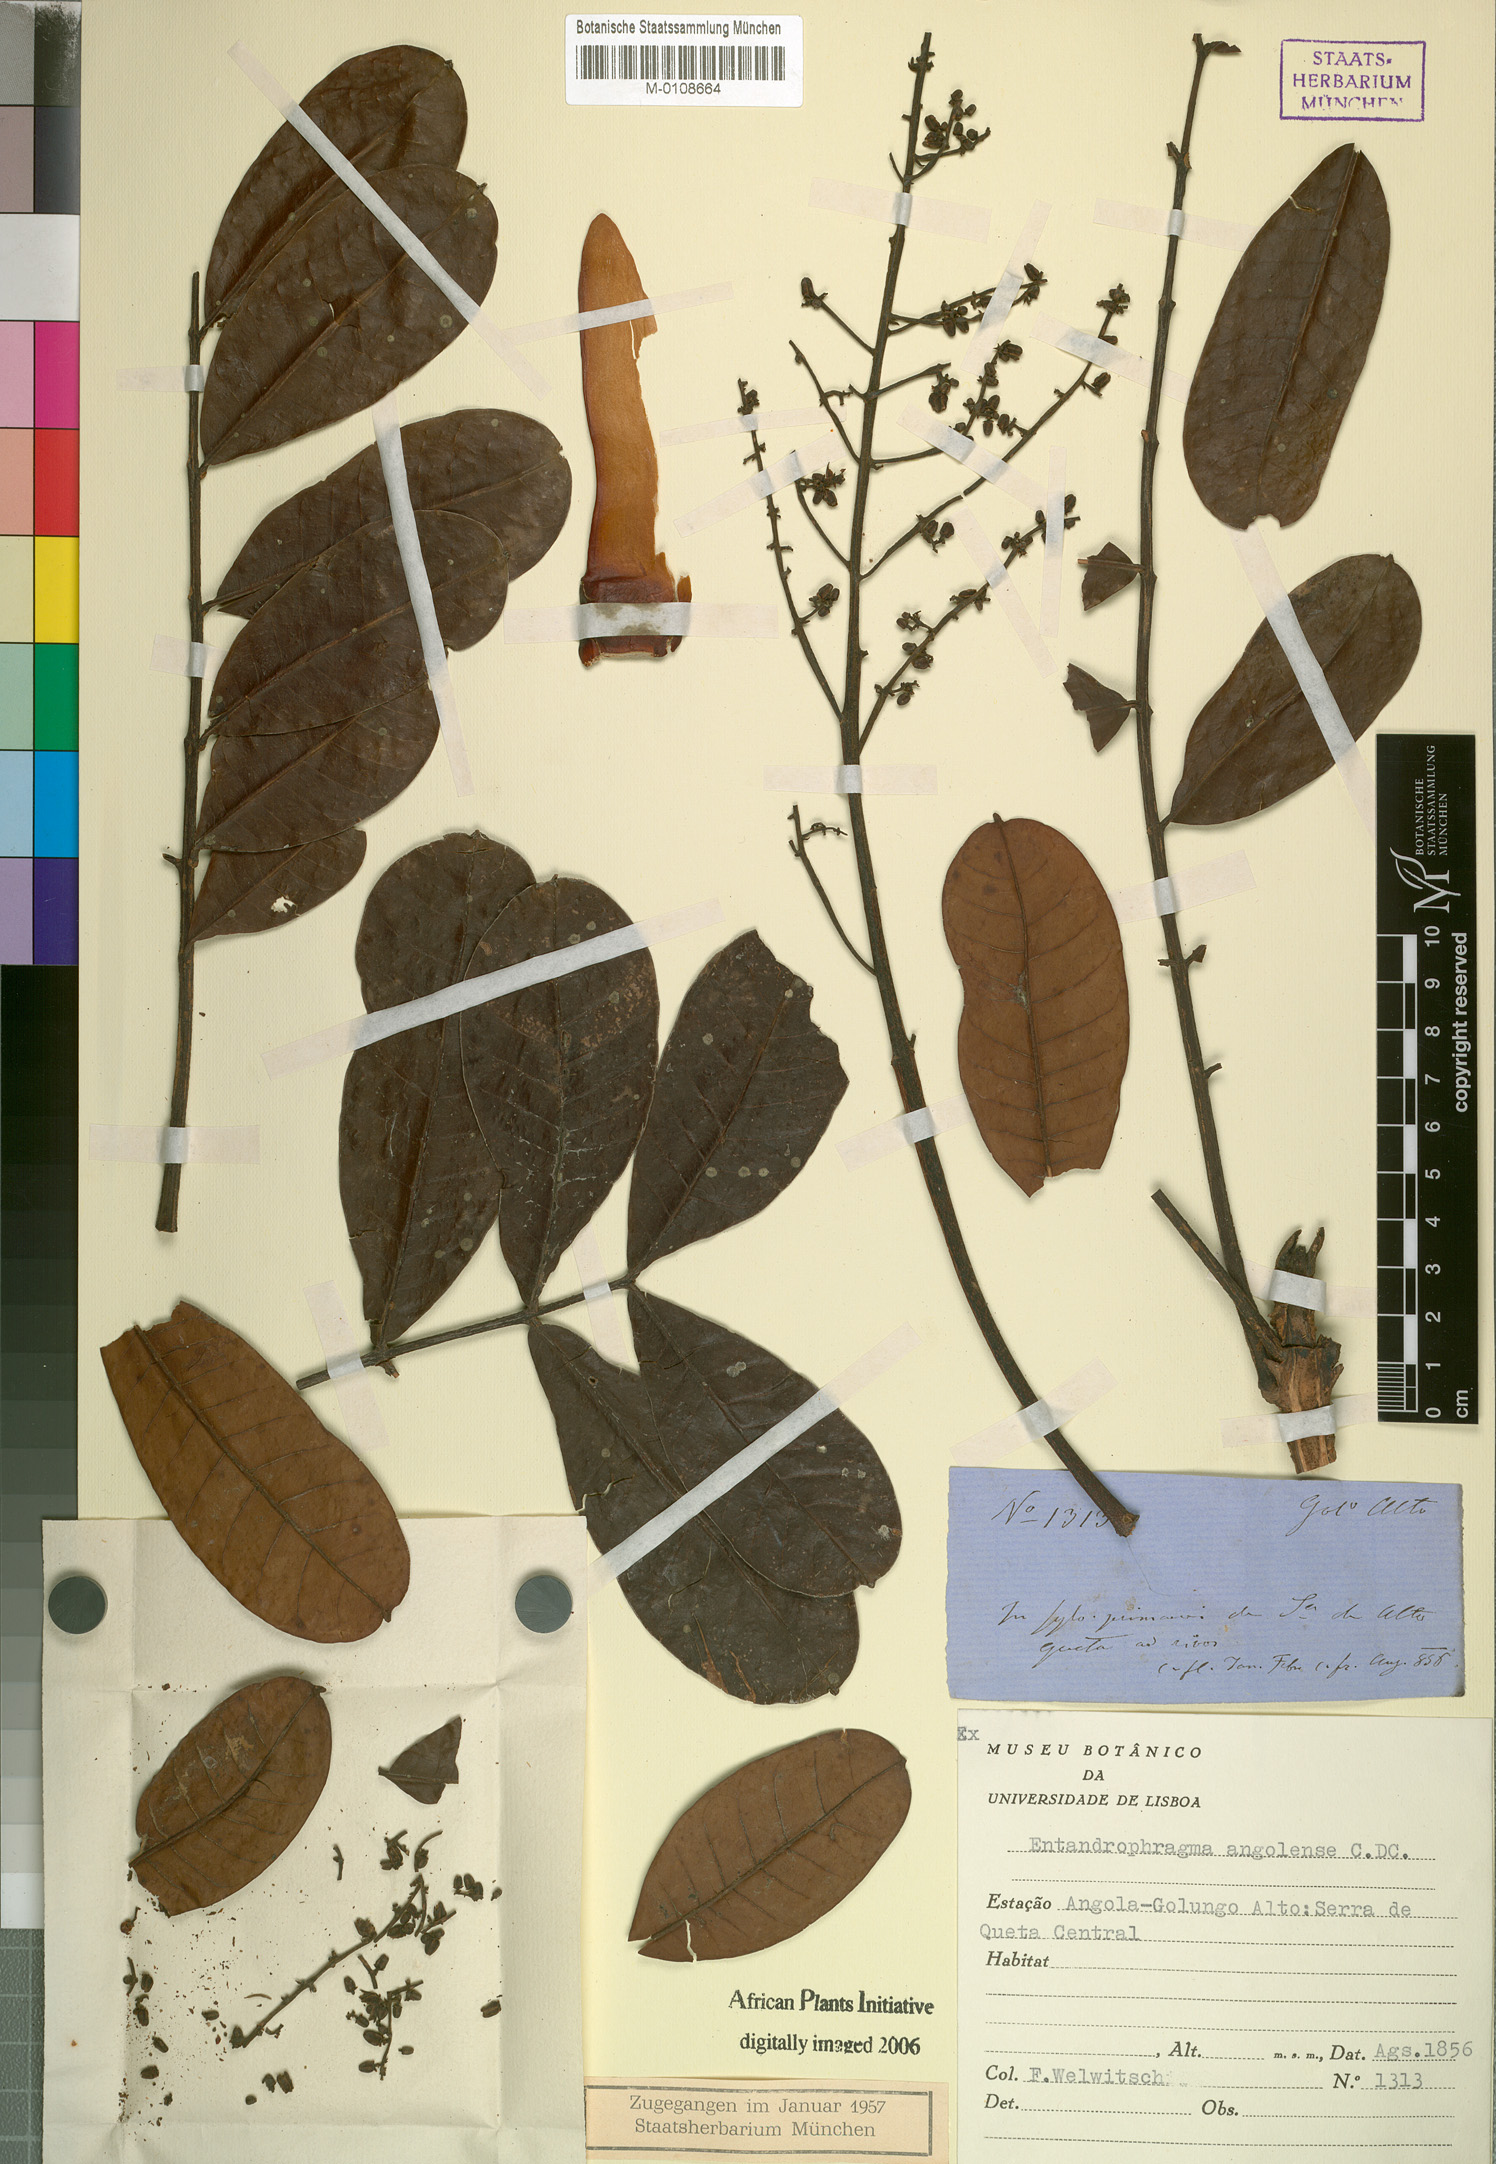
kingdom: Plantae
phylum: Tracheophyta
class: Magnoliopsida
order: Sapindales
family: Meliaceae
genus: Entandrophragma
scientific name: Entandrophragma angolense
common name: African mahogany
